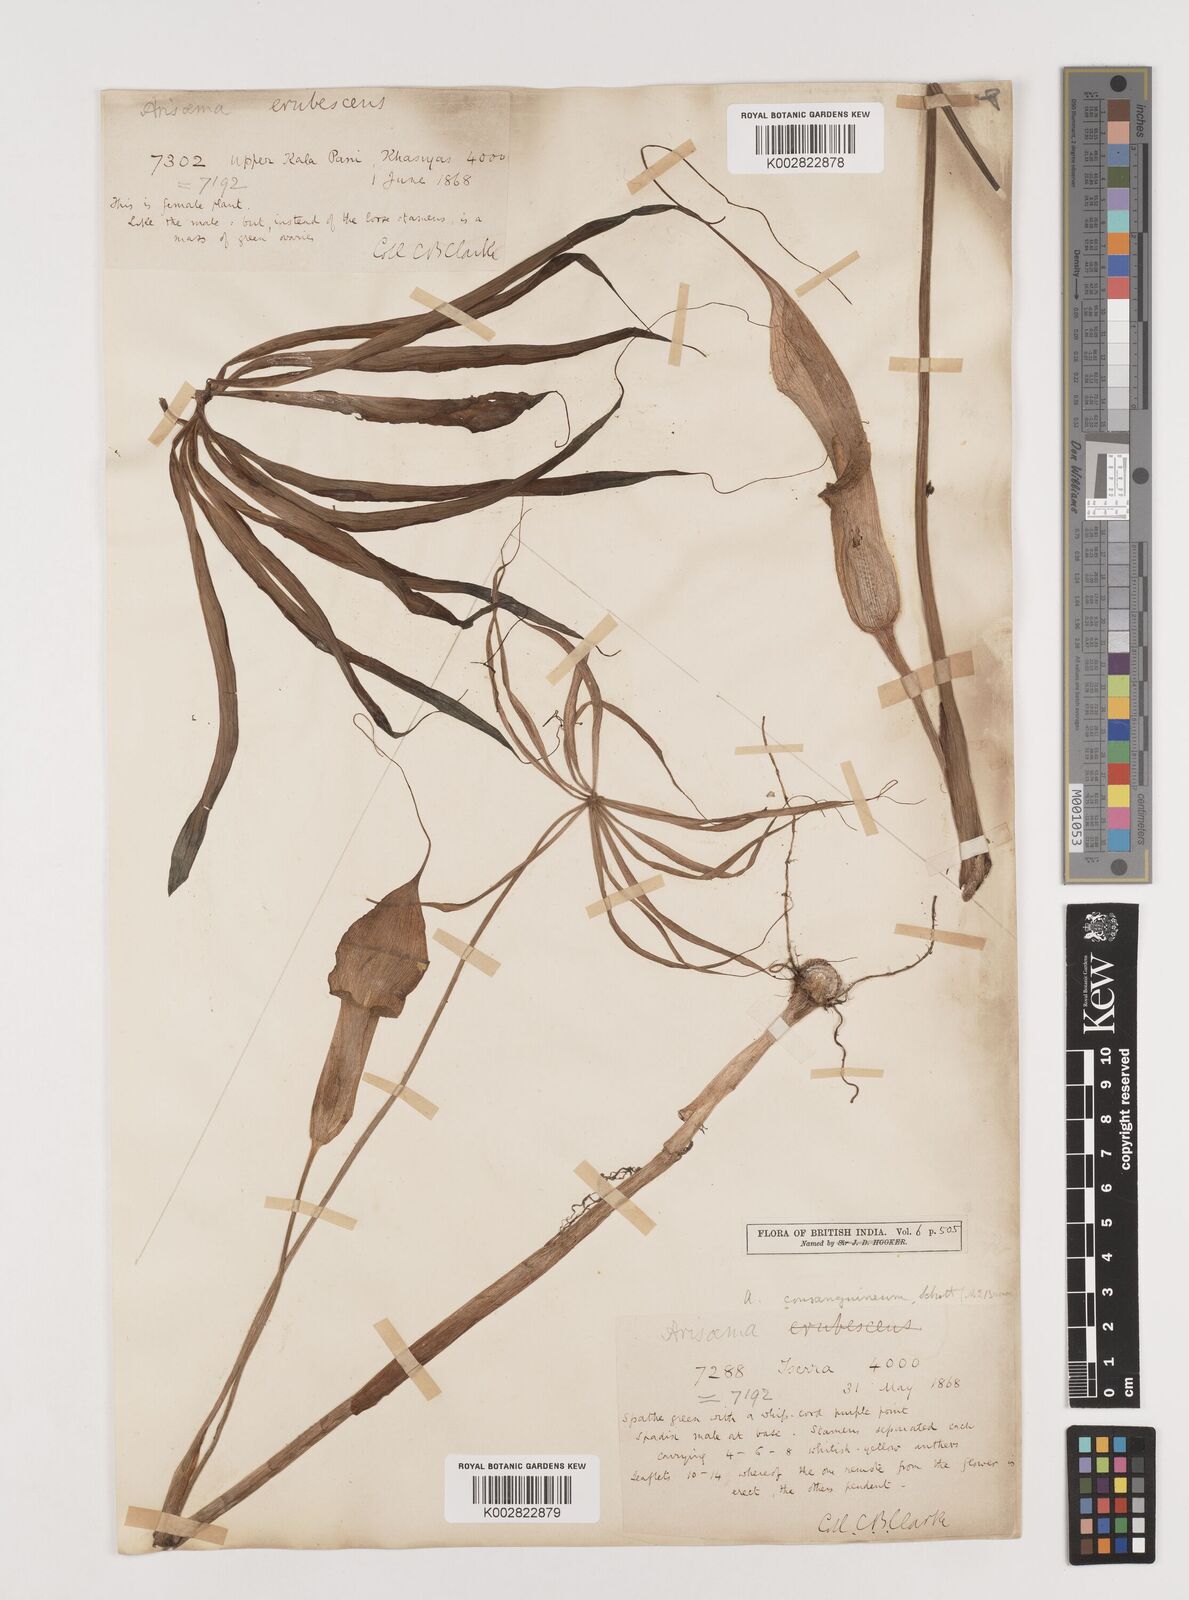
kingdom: Plantae
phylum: Tracheophyta
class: Liliopsida
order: Alismatales
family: Araceae
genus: Arisaema
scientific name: Arisaema erubescens
